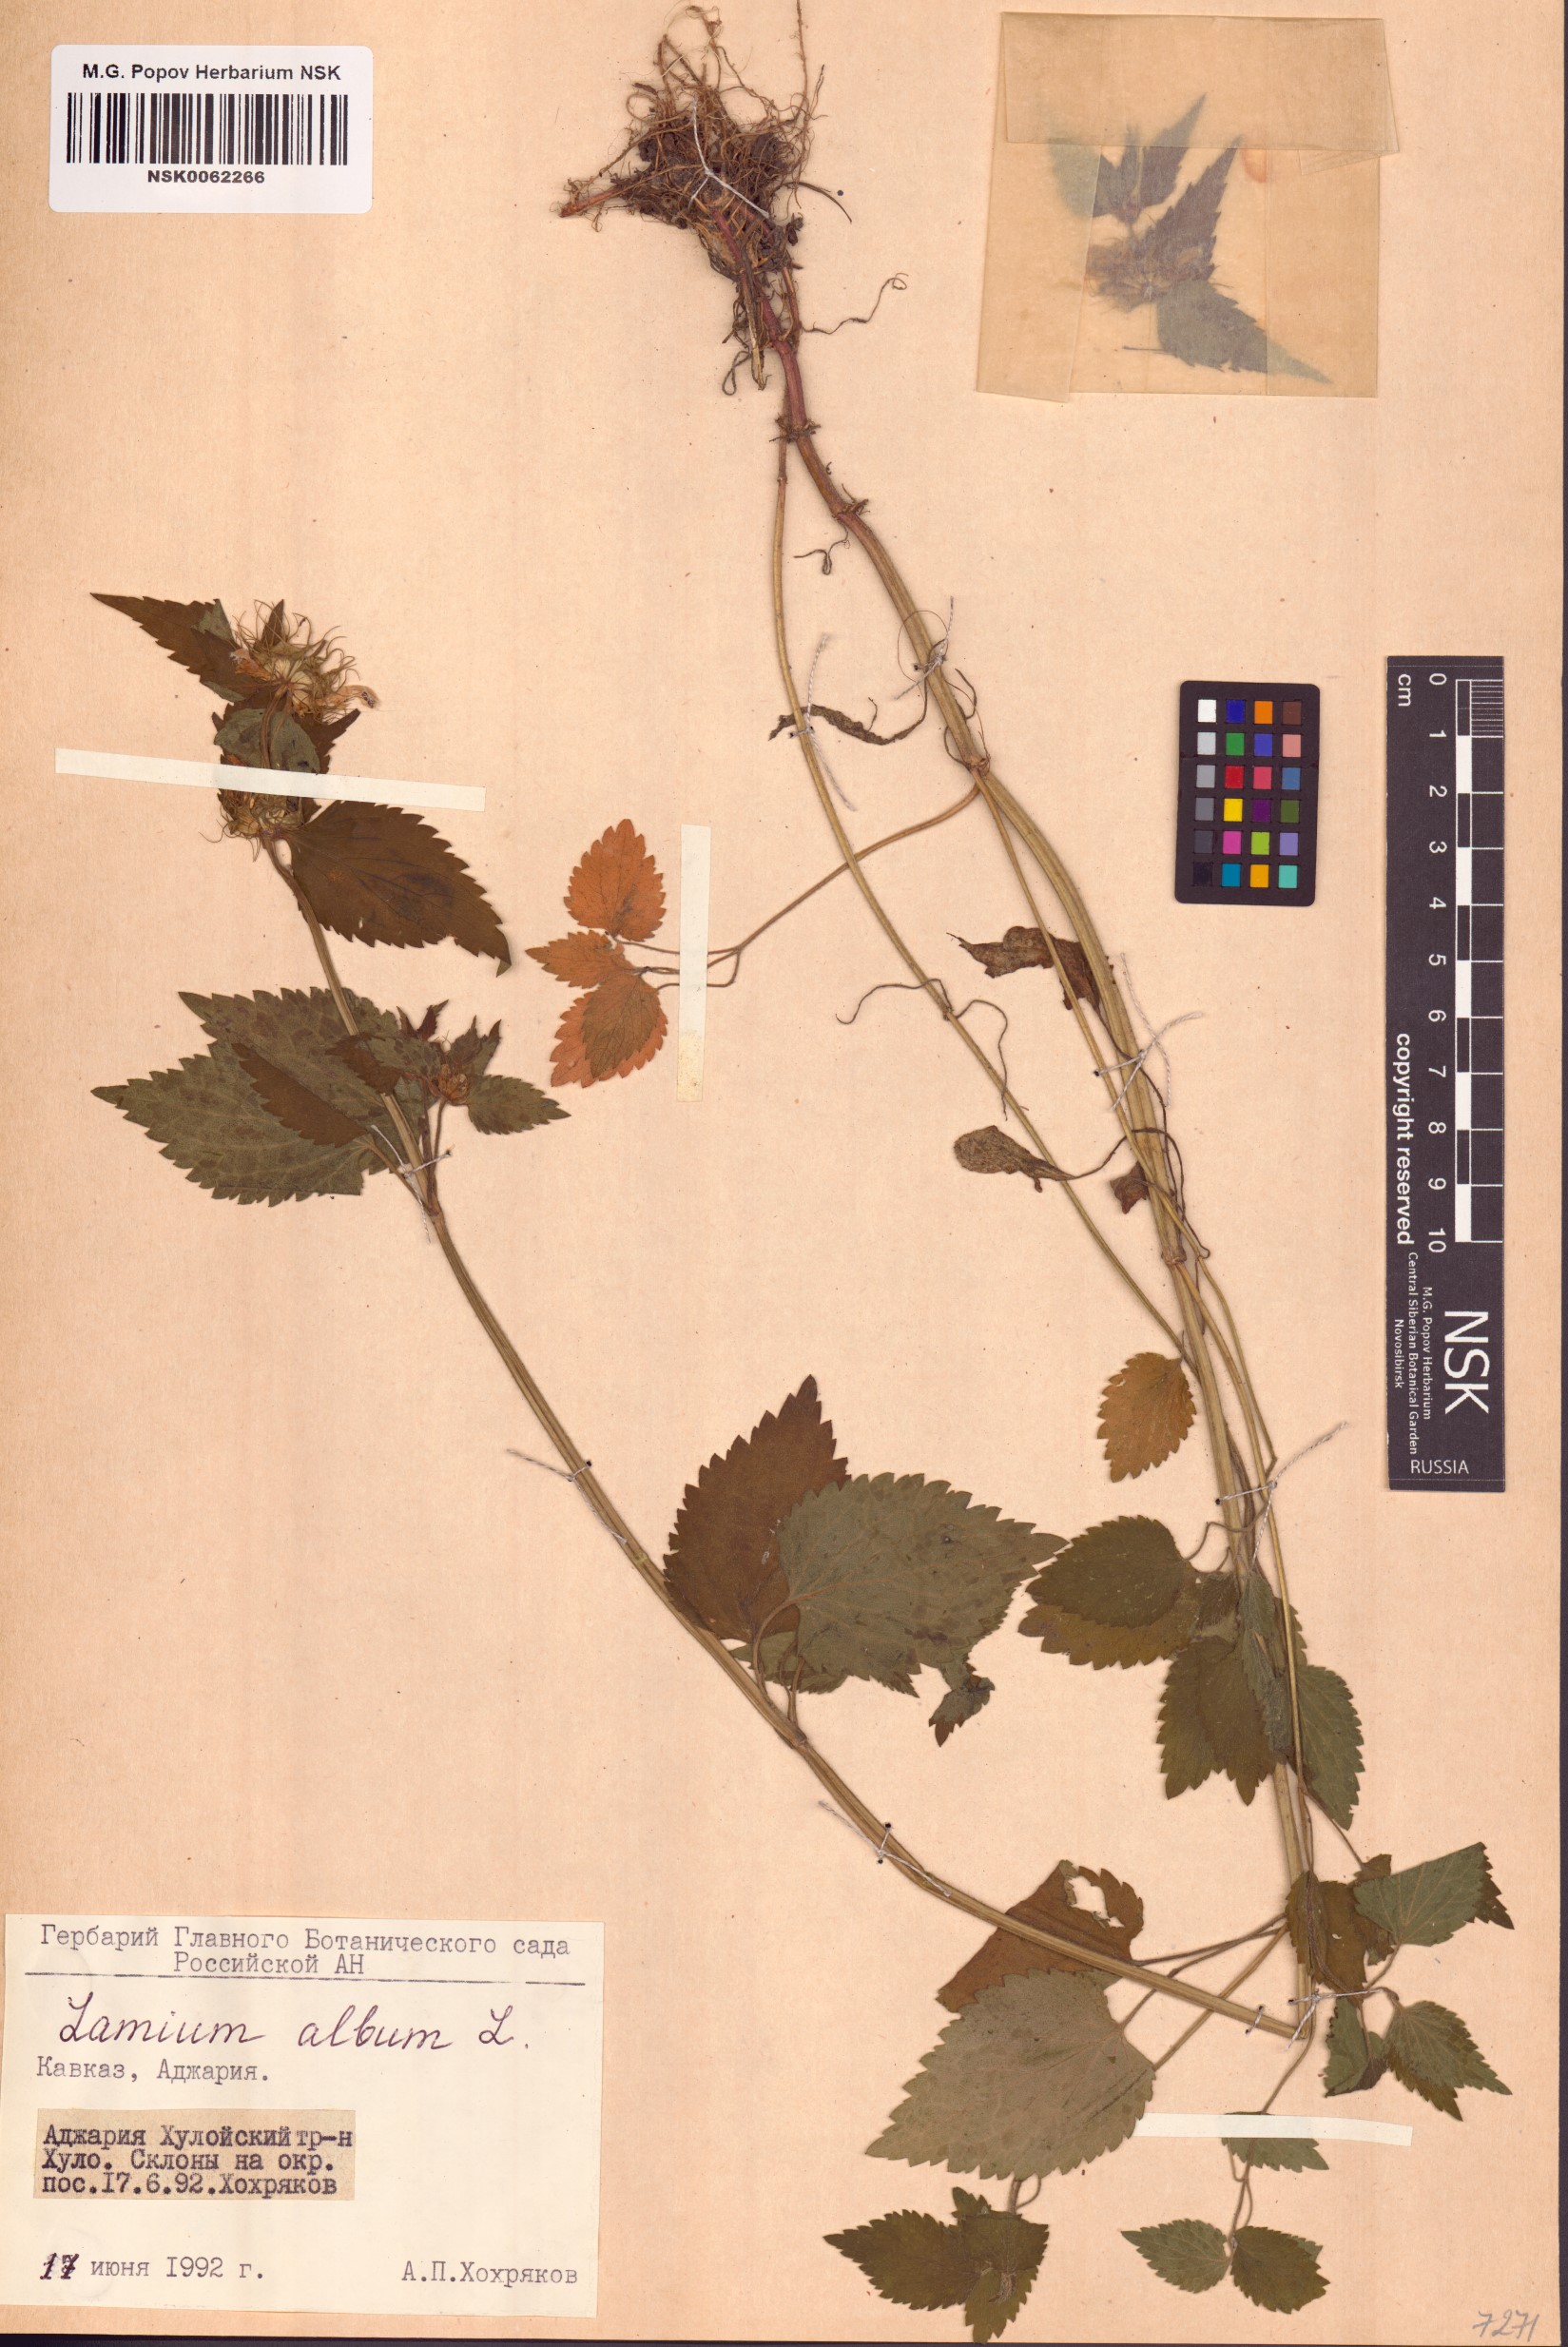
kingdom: Plantae
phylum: Tracheophyta
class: Magnoliopsida
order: Lamiales
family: Lamiaceae
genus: Lamium
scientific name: Lamium album
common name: White dead-nettle
